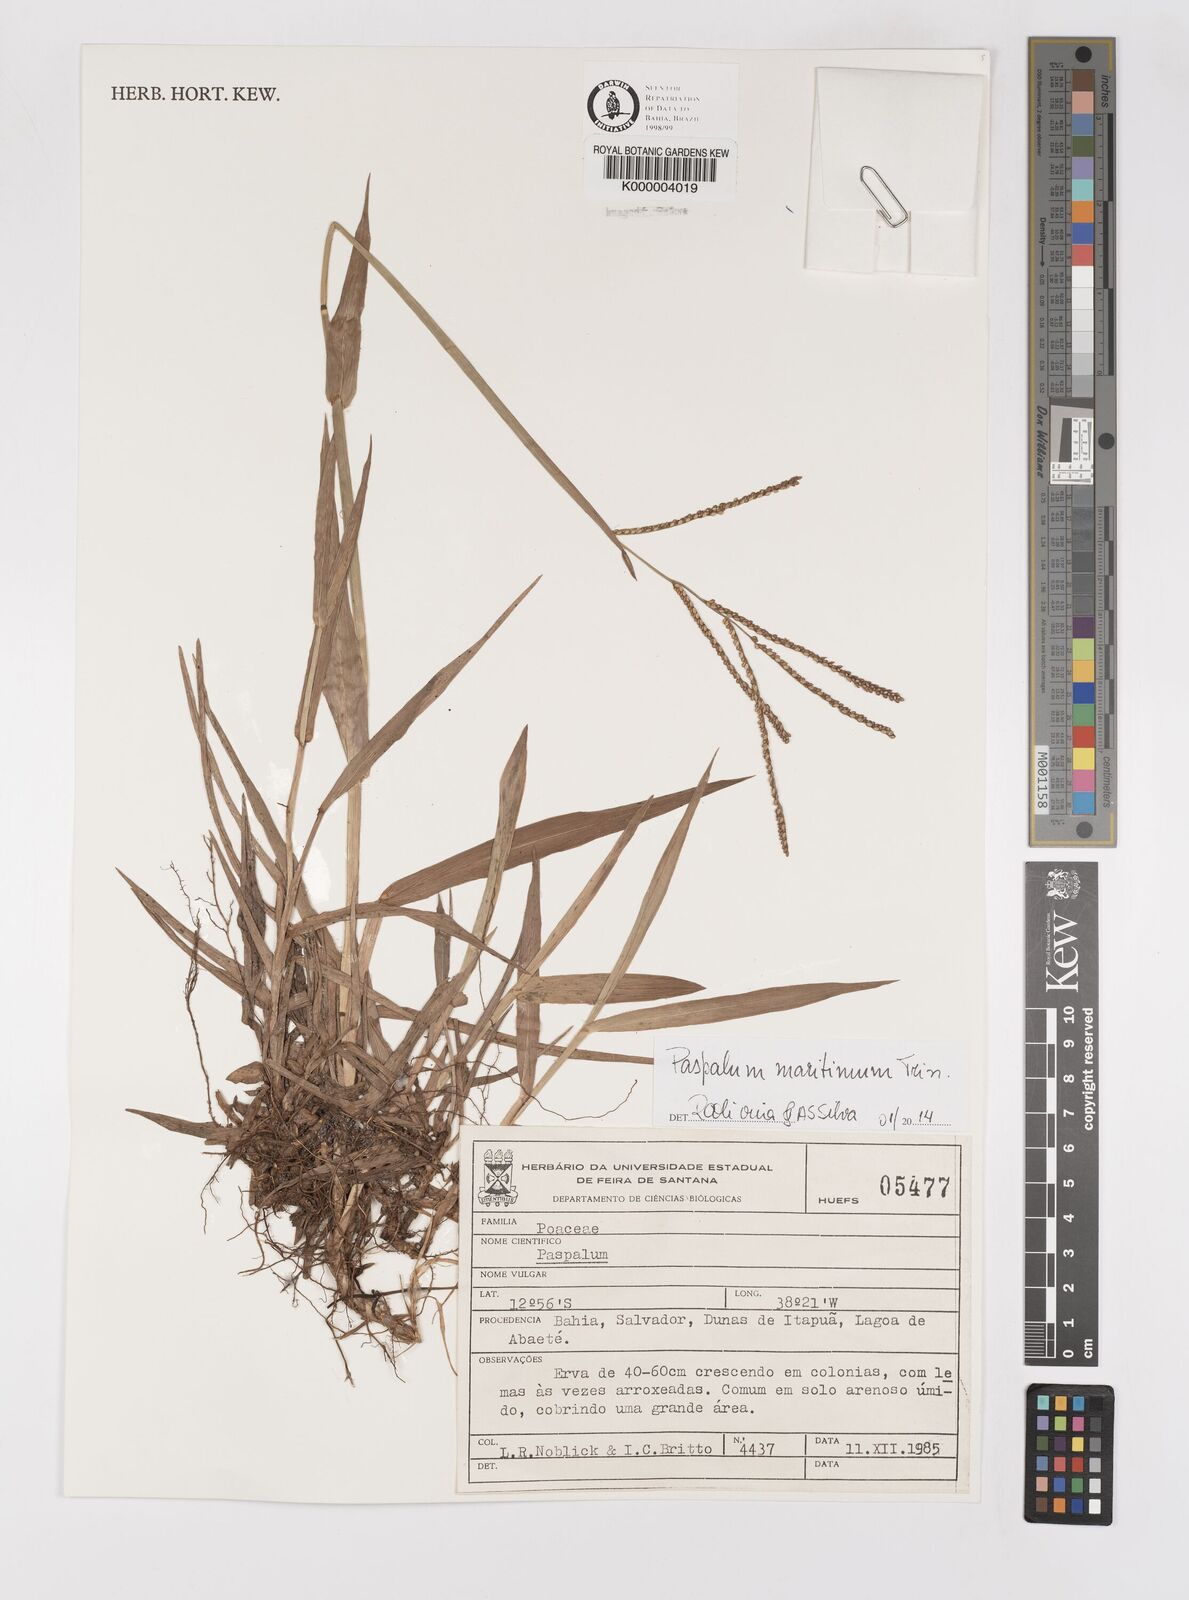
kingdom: Plantae
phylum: Tracheophyta
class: Liliopsida
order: Poales
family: Poaceae
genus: Paspalum
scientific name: Paspalum
